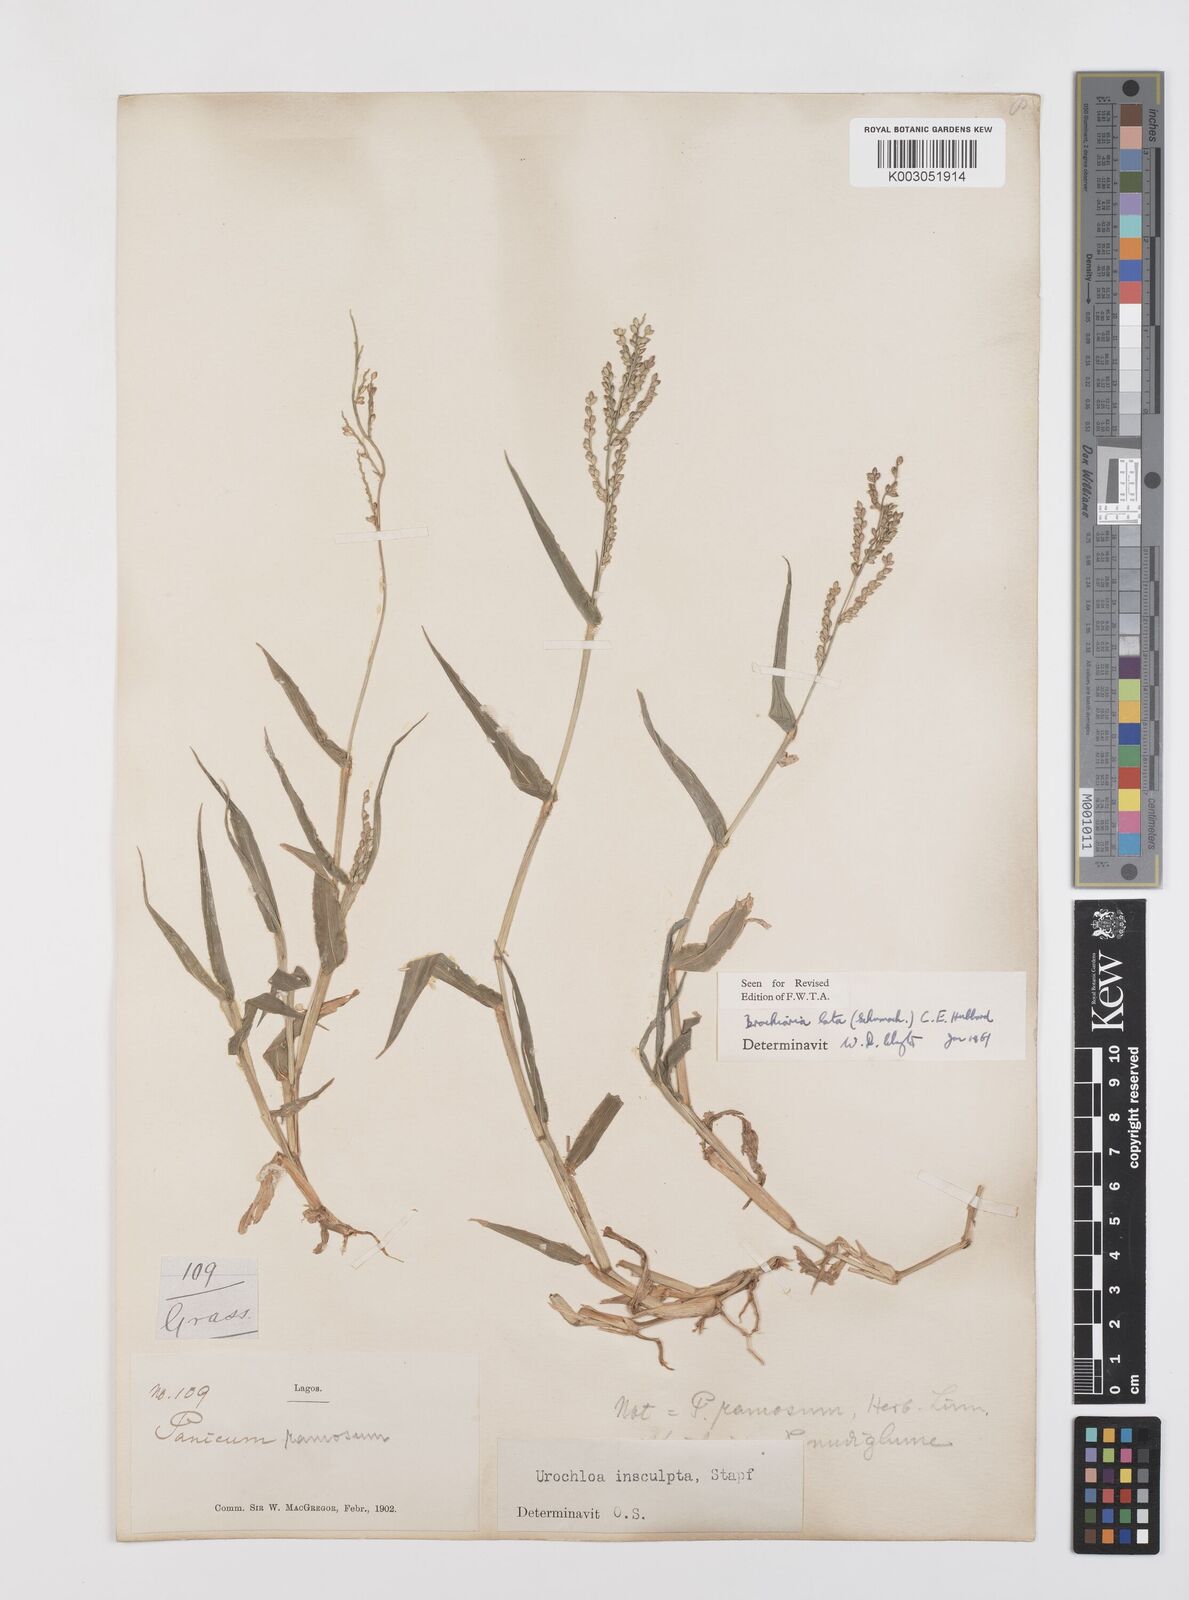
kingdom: Plantae
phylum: Tracheophyta
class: Liliopsida
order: Poales
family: Poaceae
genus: Urochloa
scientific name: Urochloa lata
